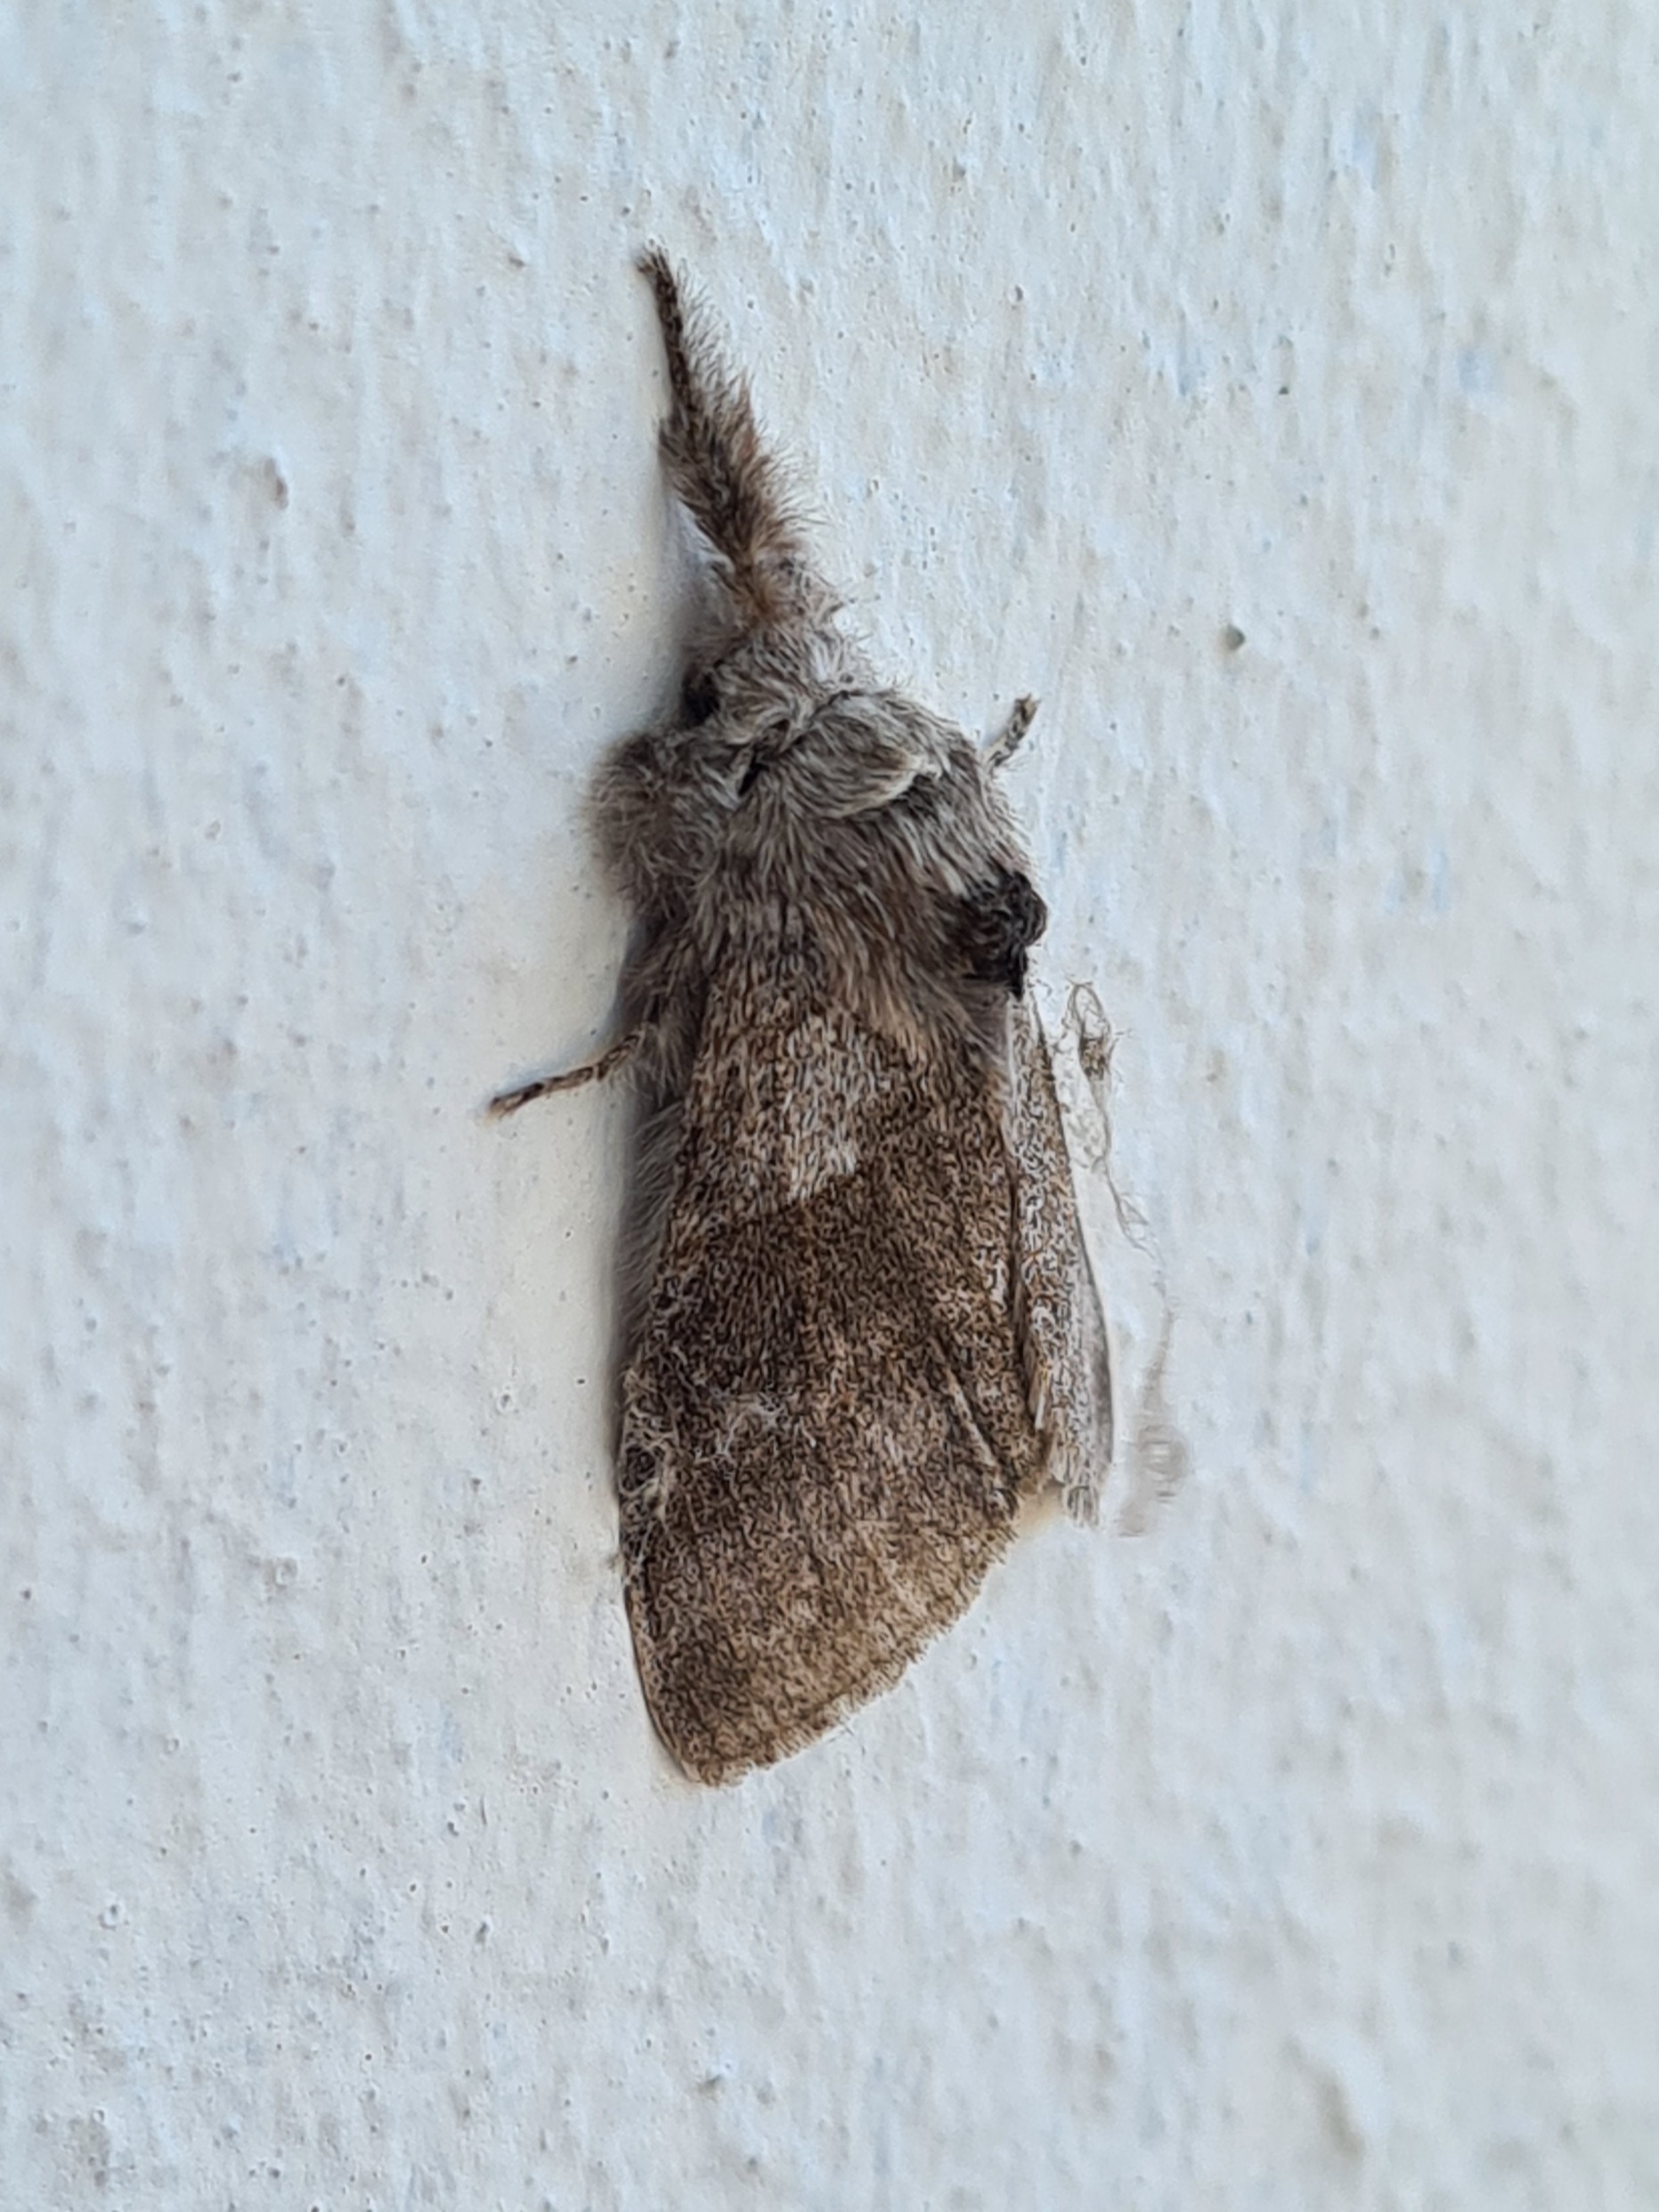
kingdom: Animalia
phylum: Arthropoda
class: Insecta
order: Lepidoptera
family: Erebidae
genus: Calliteara
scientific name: Calliteara pudibunda
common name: Bøgenonne
